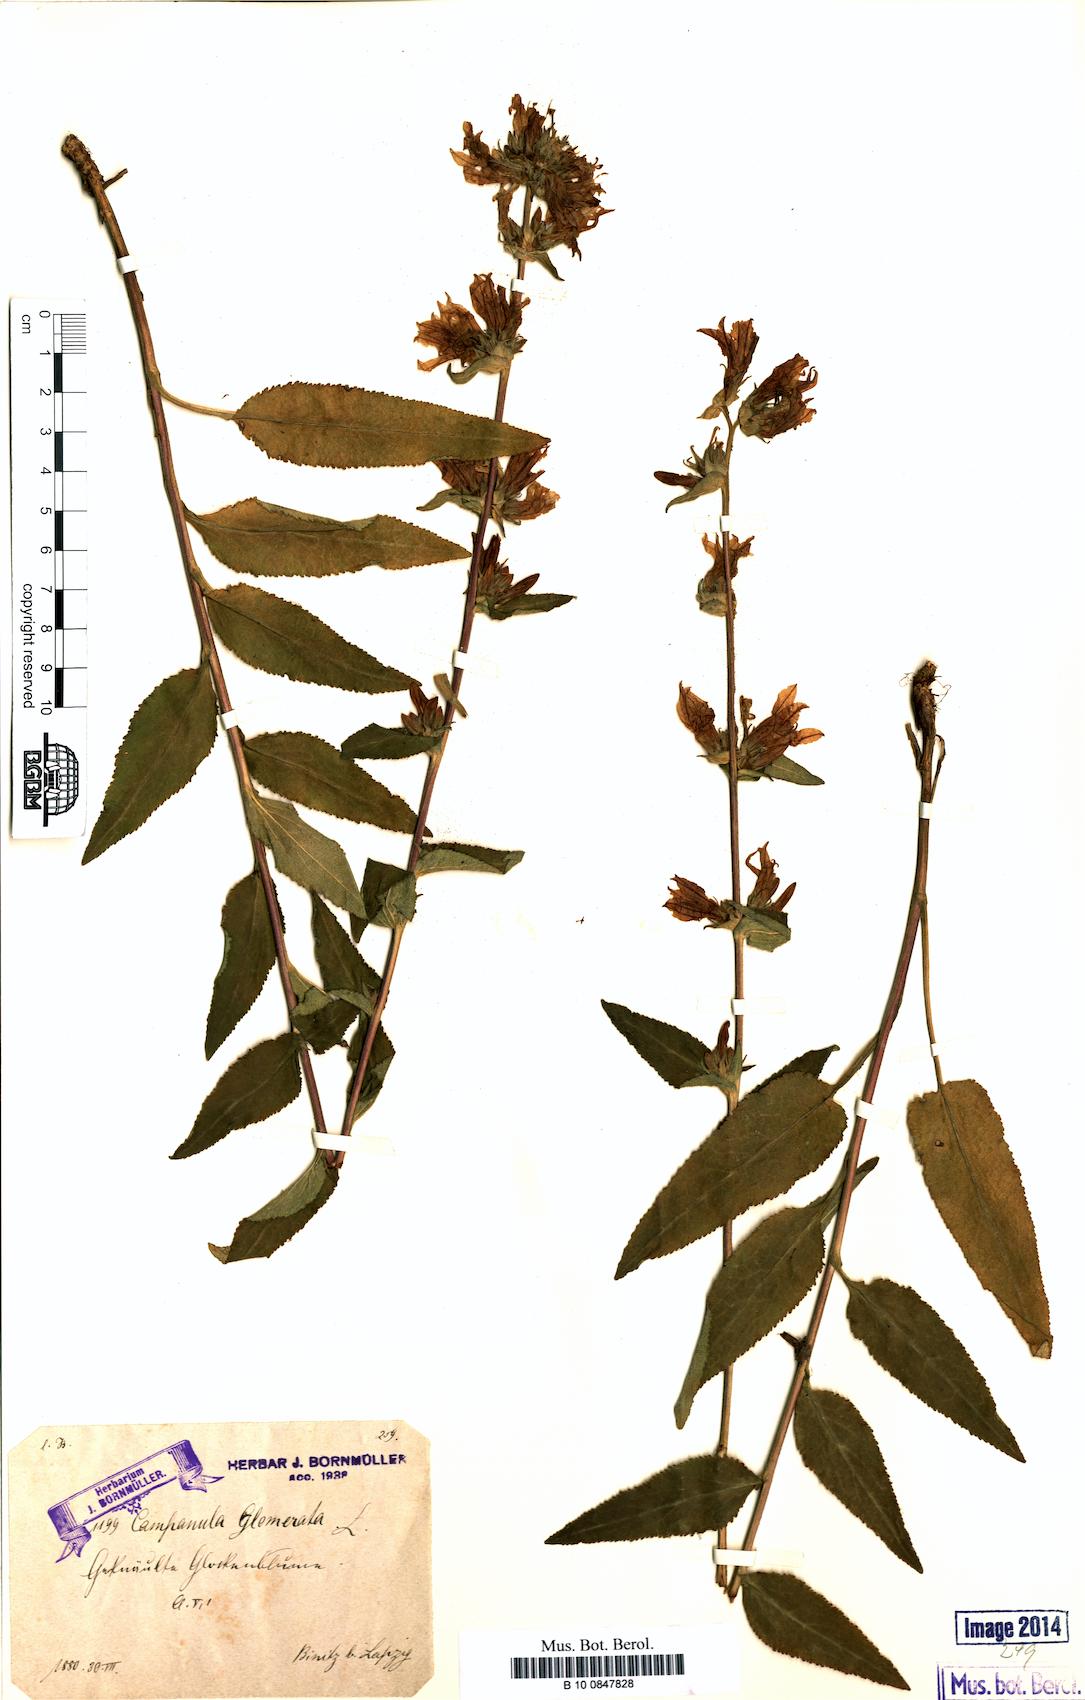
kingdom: Plantae
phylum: Tracheophyta
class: Magnoliopsida
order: Asterales
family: Campanulaceae
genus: Campanula
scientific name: Campanula glomerata
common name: Clustered bellflower
